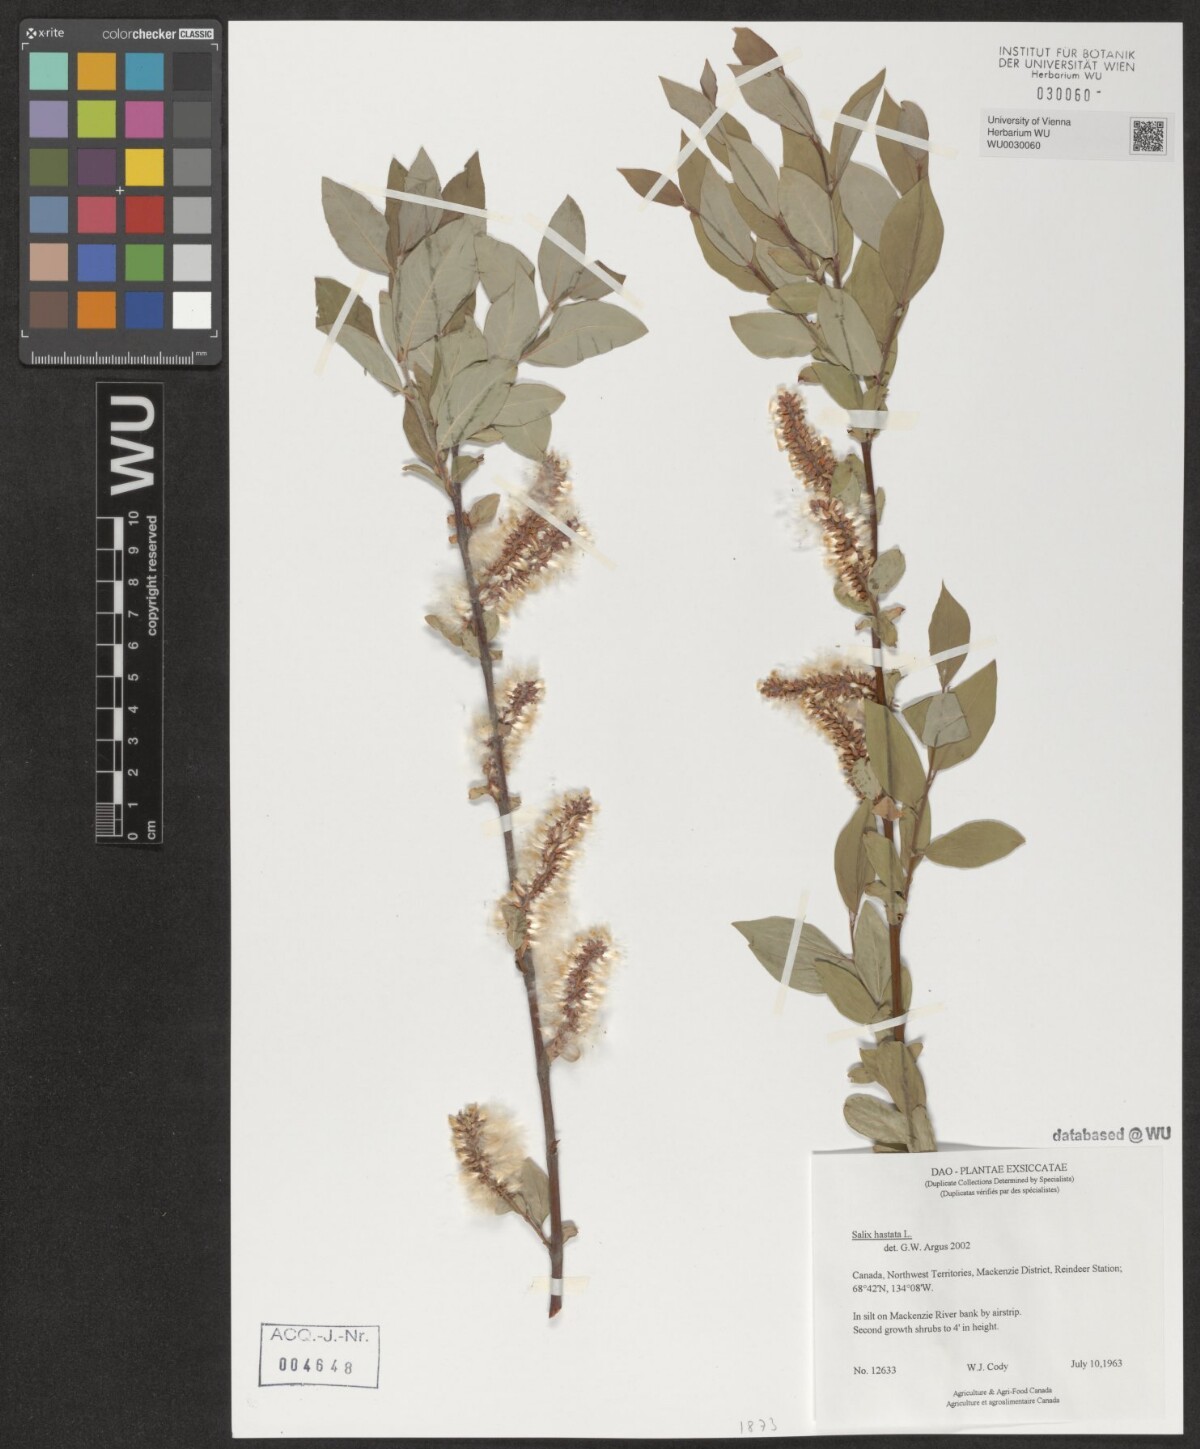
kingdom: Plantae
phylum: Tracheophyta
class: Magnoliopsida
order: Malpighiales
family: Salicaceae
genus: Salix
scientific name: Salix hastata
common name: Halberd willow
